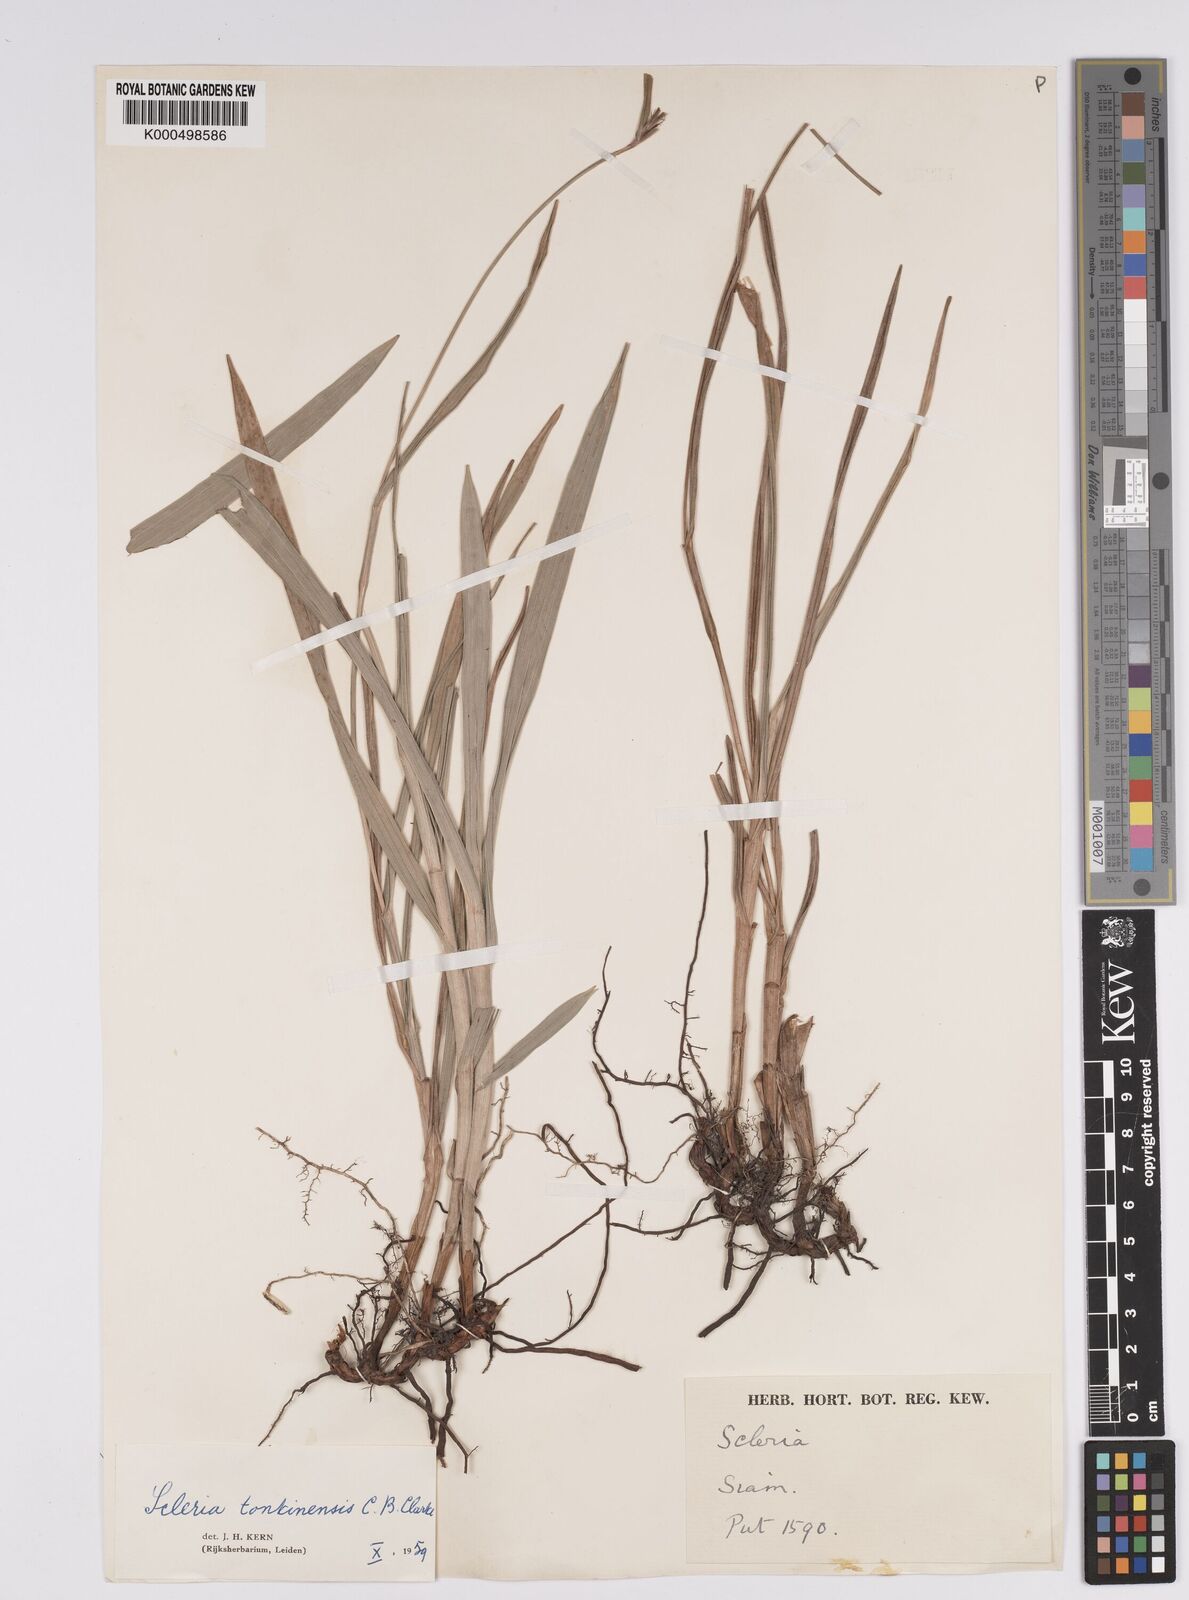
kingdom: Plantae
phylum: Tracheophyta
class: Liliopsida
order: Poales
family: Cyperaceae
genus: Scleria
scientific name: Scleria tonkinensis
